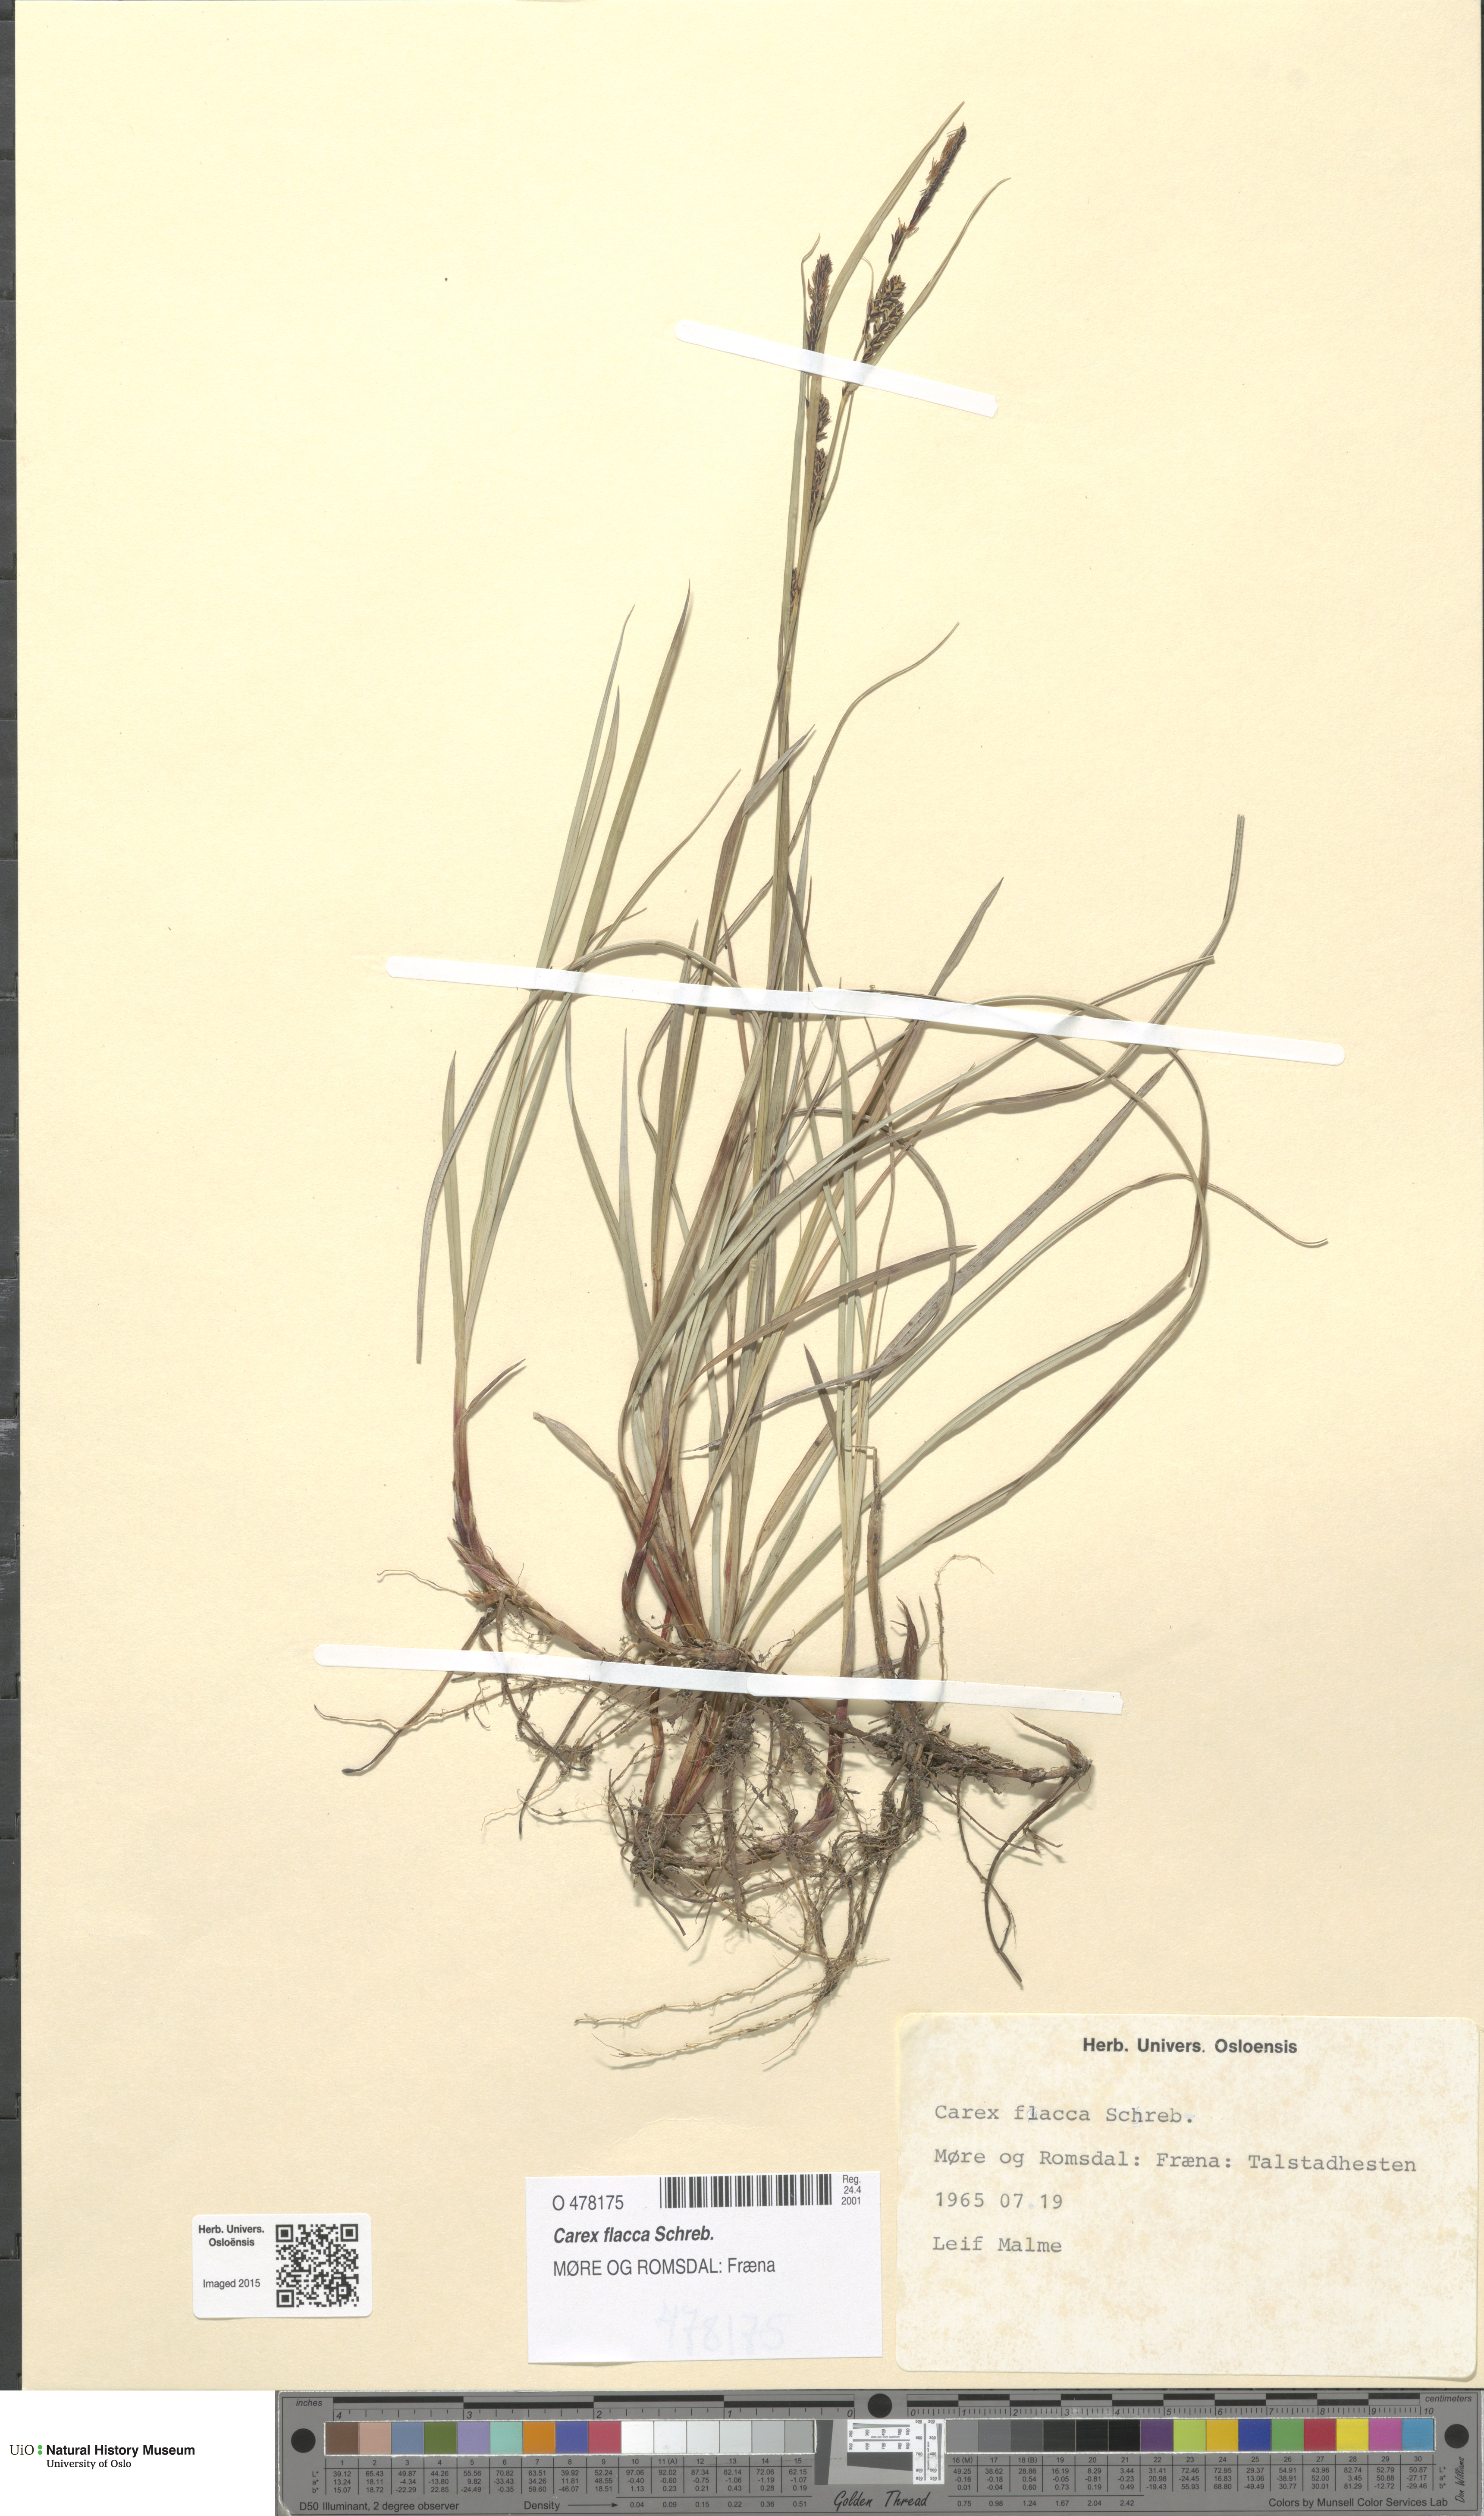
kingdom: Plantae
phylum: Tracheophyta
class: Liliopsida
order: Poales
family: Cyperaceae
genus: Carex
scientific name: Carex flacca
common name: Glaucous sedge
